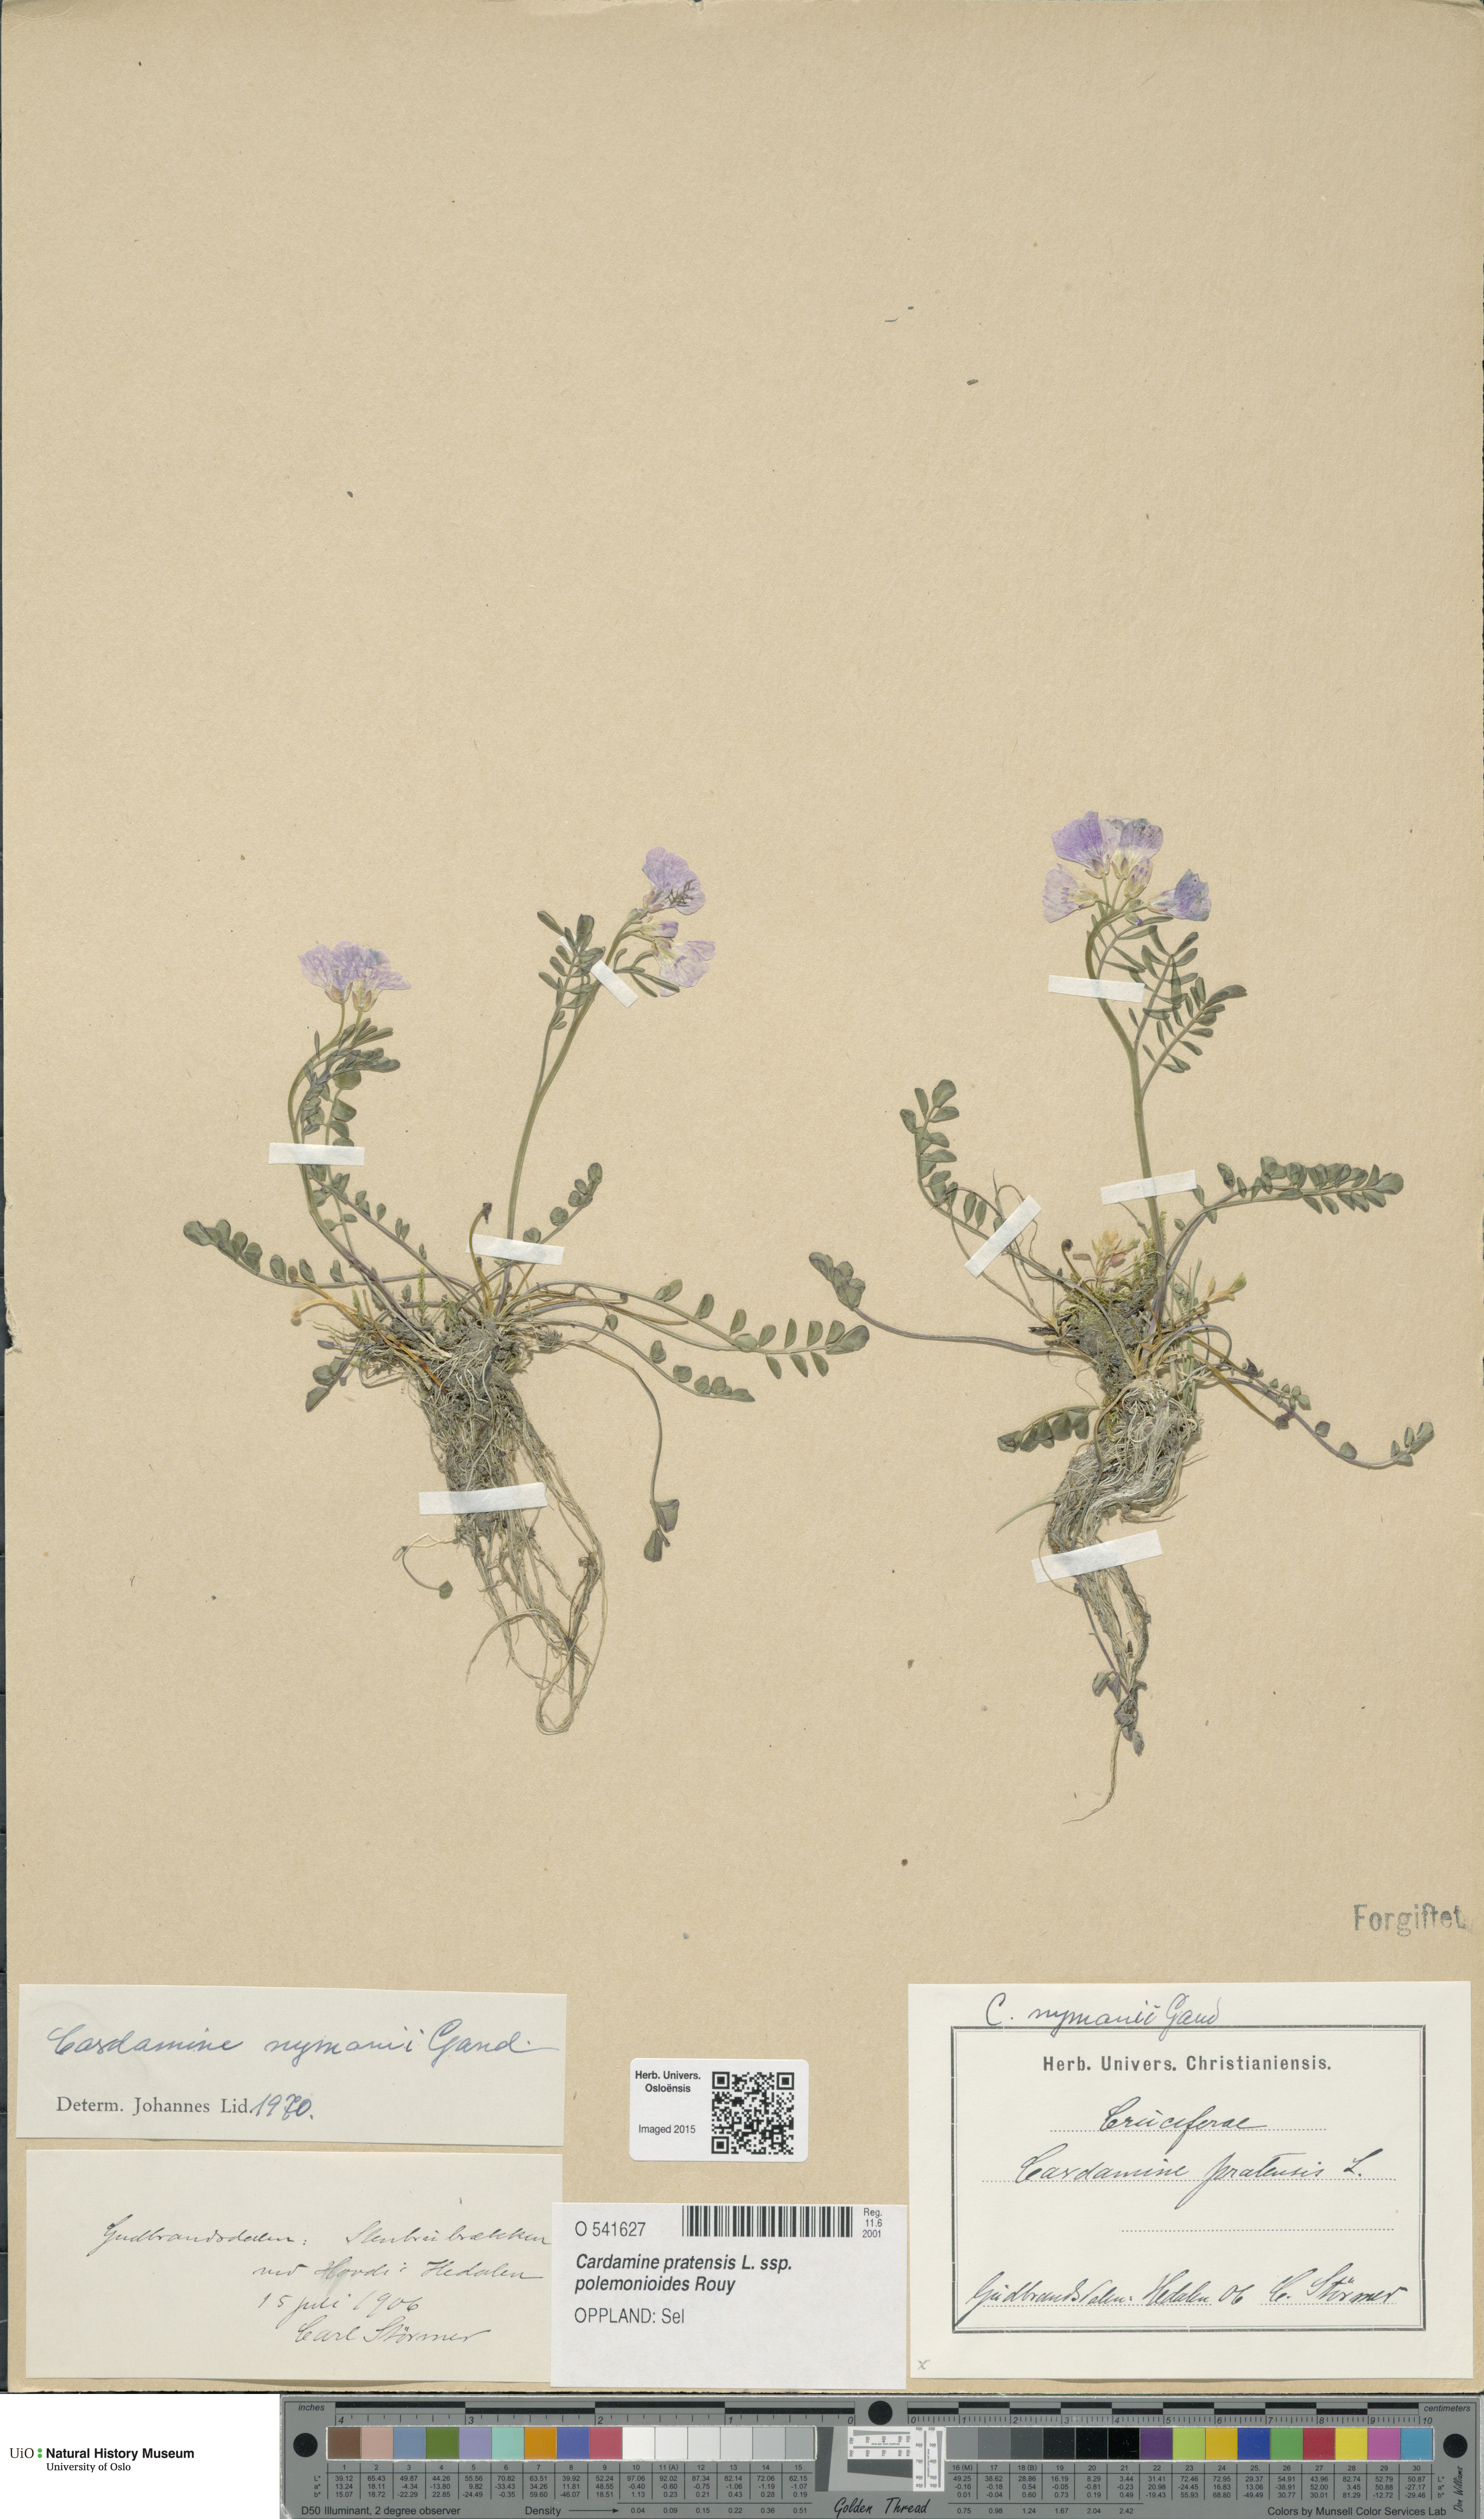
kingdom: Plantae
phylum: Tracheophyta
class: Magnoliopsida
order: Brassicales
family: Brassicaceae
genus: Cardamine
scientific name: Cardamine nymanii
